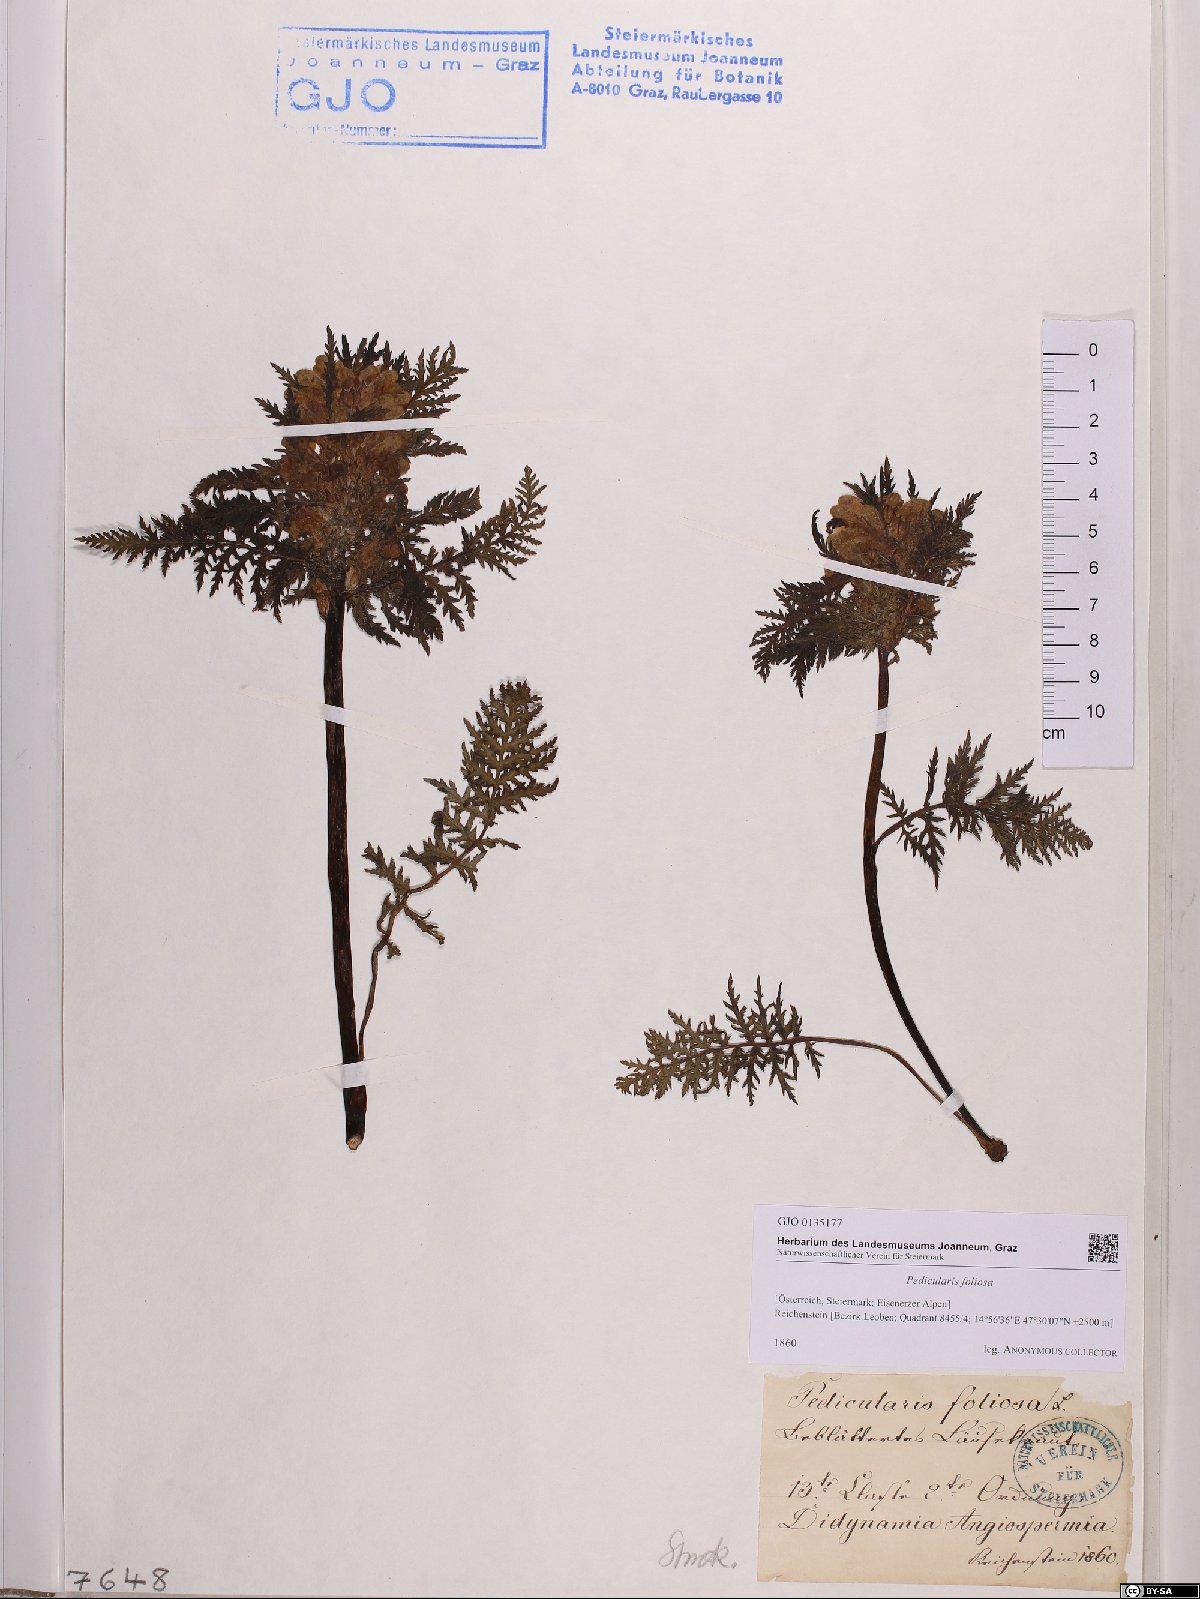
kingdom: Plantae
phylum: Tracheophyta
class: Magnoliopsida
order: Lamiales
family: Orobanchaceae
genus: Pedicularis
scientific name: Pedicularis foliosa
